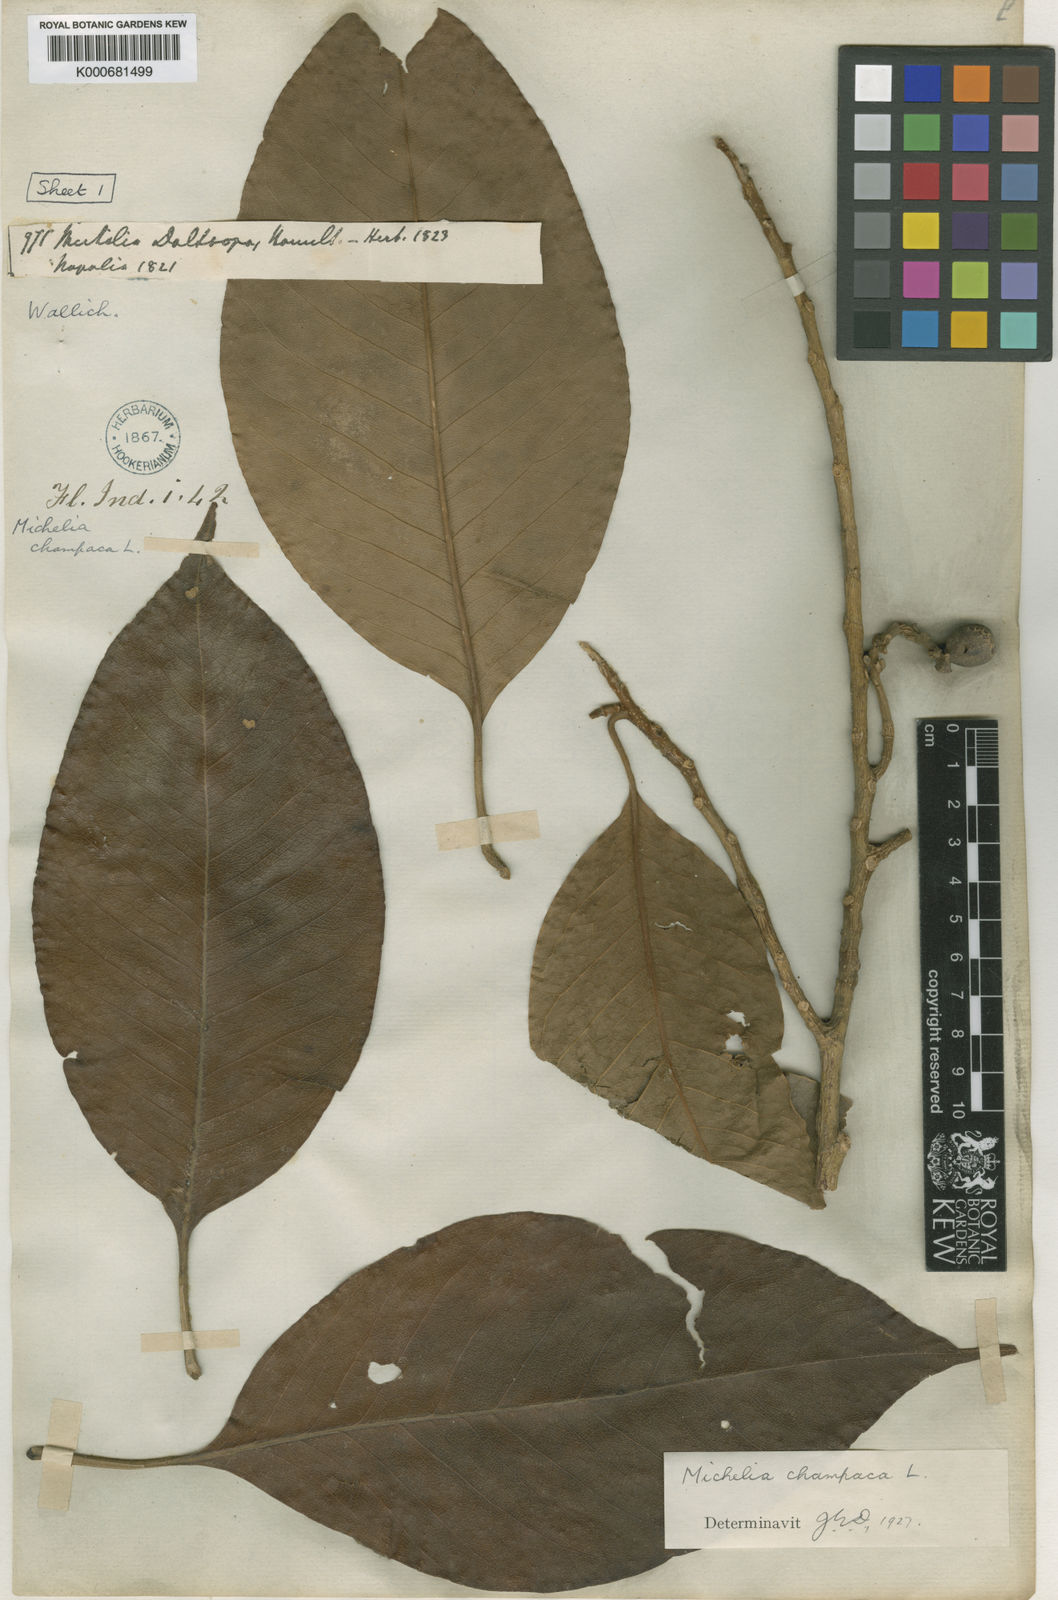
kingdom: Plantae
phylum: Tracheophyta
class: Magnoliopsida
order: Magnoliales
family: Magnoliaceae
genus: Magnolia
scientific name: Magnolia champaca
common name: Champak
